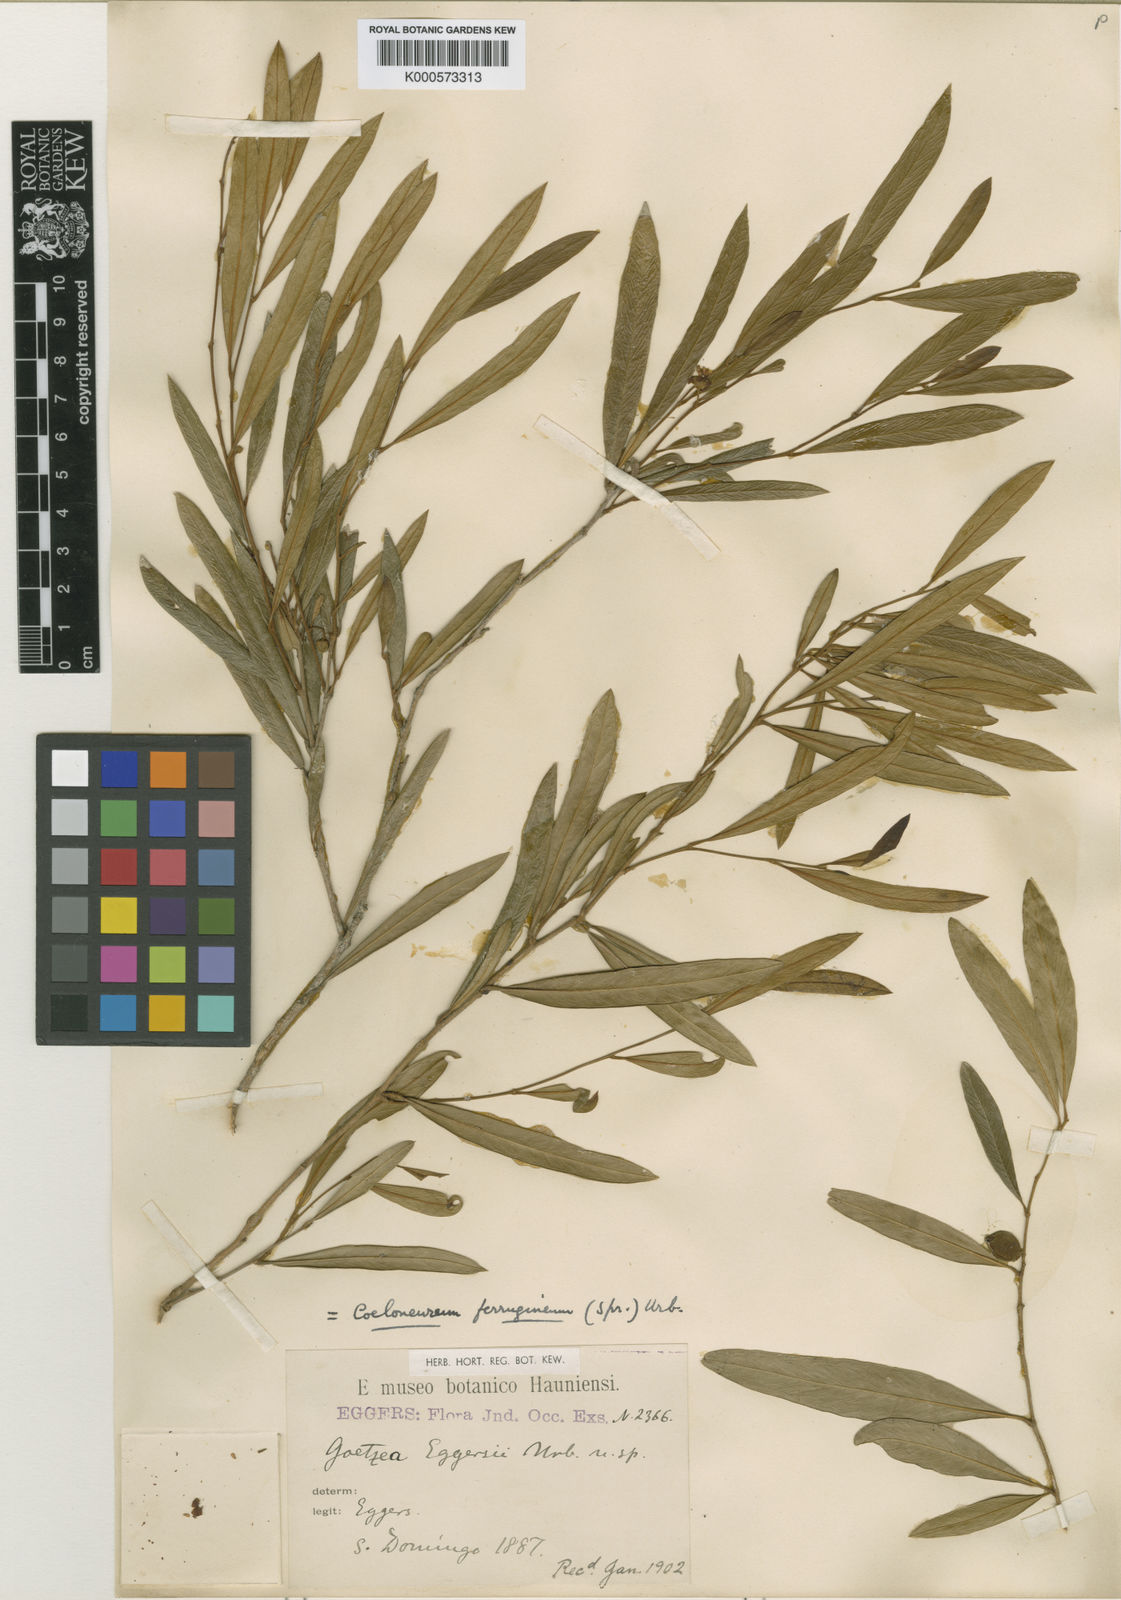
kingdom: Plantae
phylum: Tracheophyta
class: Magnoliopsida
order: Solanales
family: Solanaceae
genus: Coeloneurum
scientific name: Coeloneurum ferrugineum
